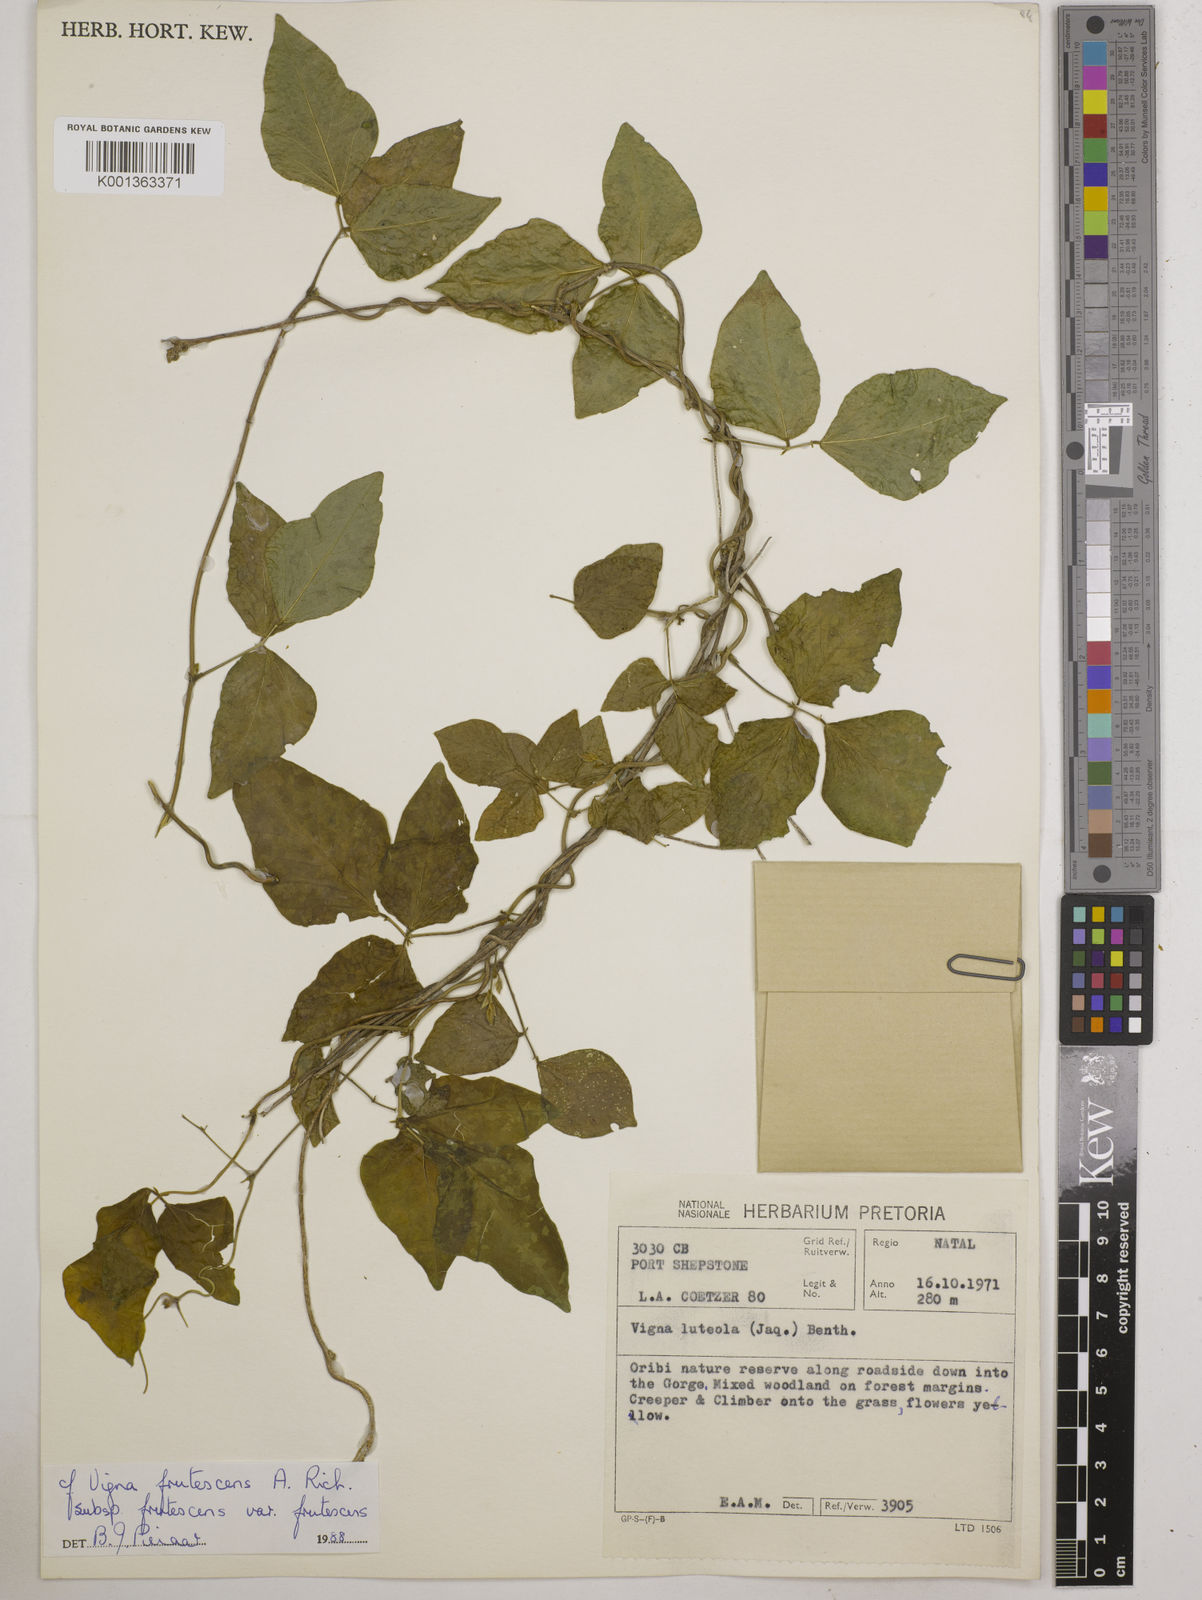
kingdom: Plantae
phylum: Tracheophyta
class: Magnoliopsida
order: Fabales
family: Fabaceae
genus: Vigna
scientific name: Vigna frutescens
